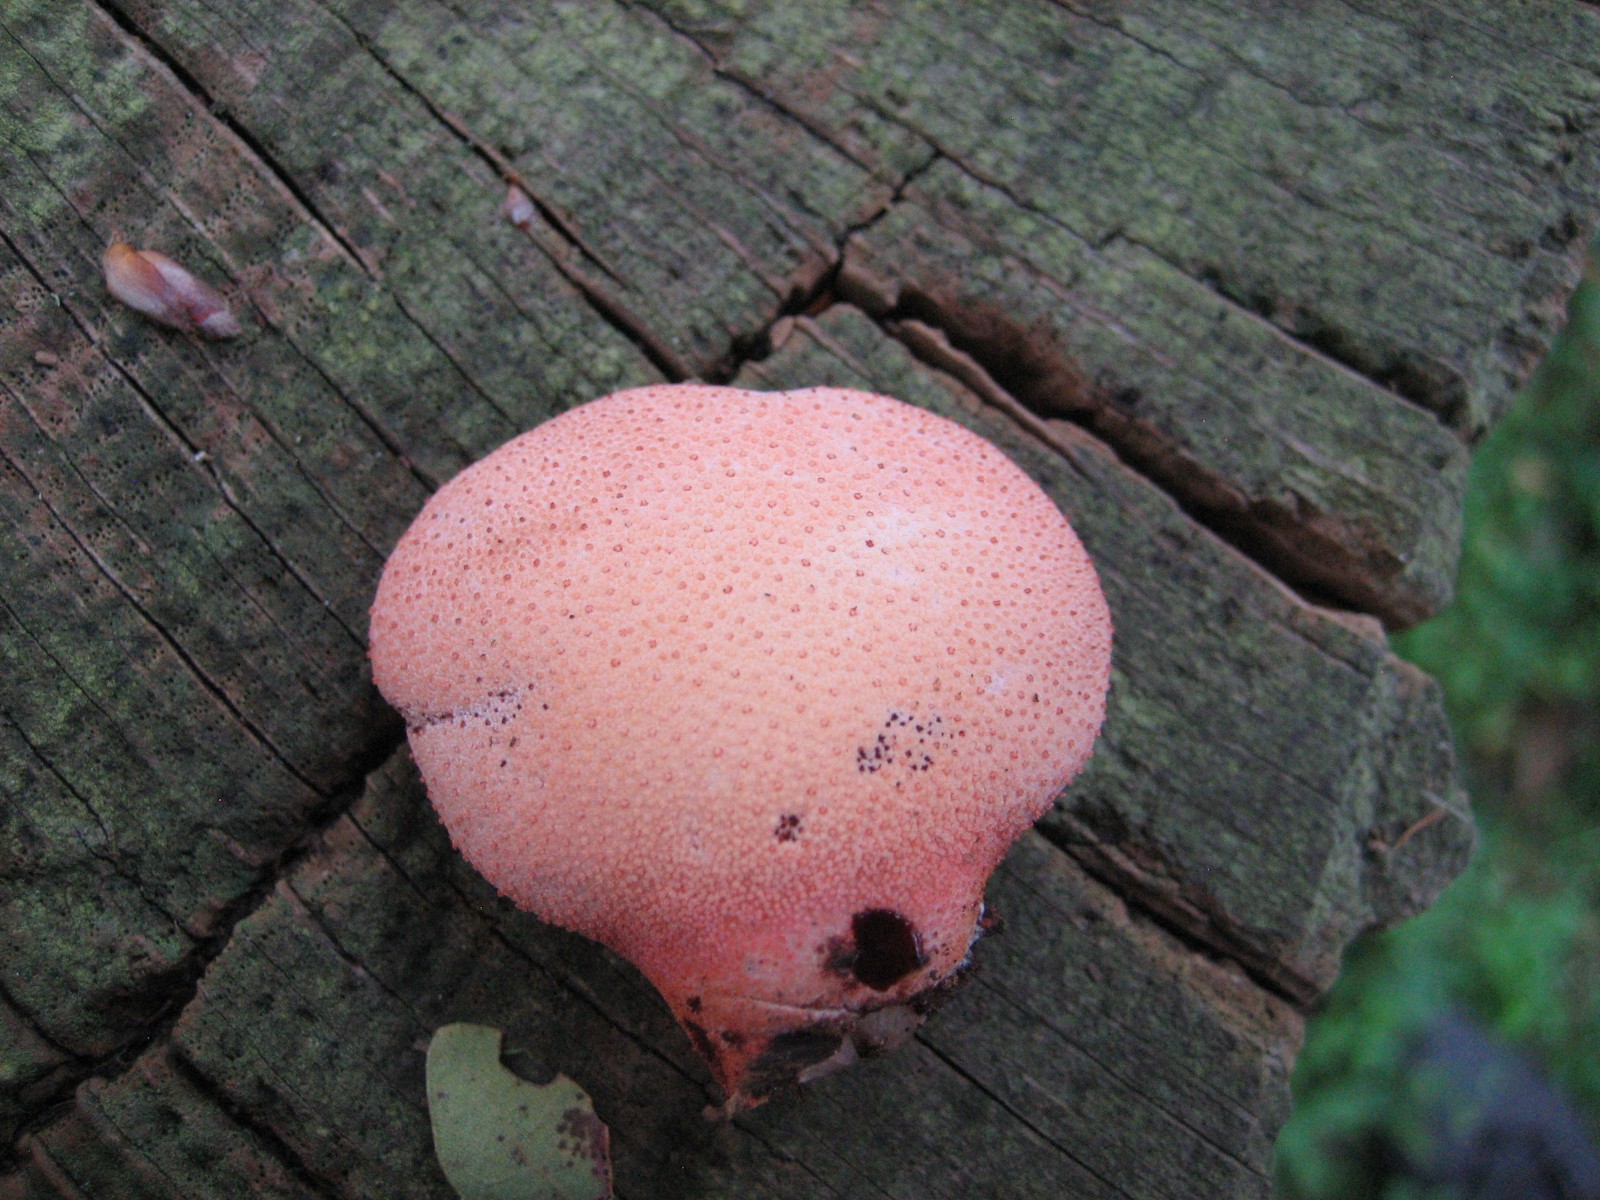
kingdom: Fungi
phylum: Basidiomycota
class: Agaricomycetes
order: Agaricales
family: Fistulinaceae
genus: Fistulina
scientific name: Fistulina hepatica
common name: oksetunge
